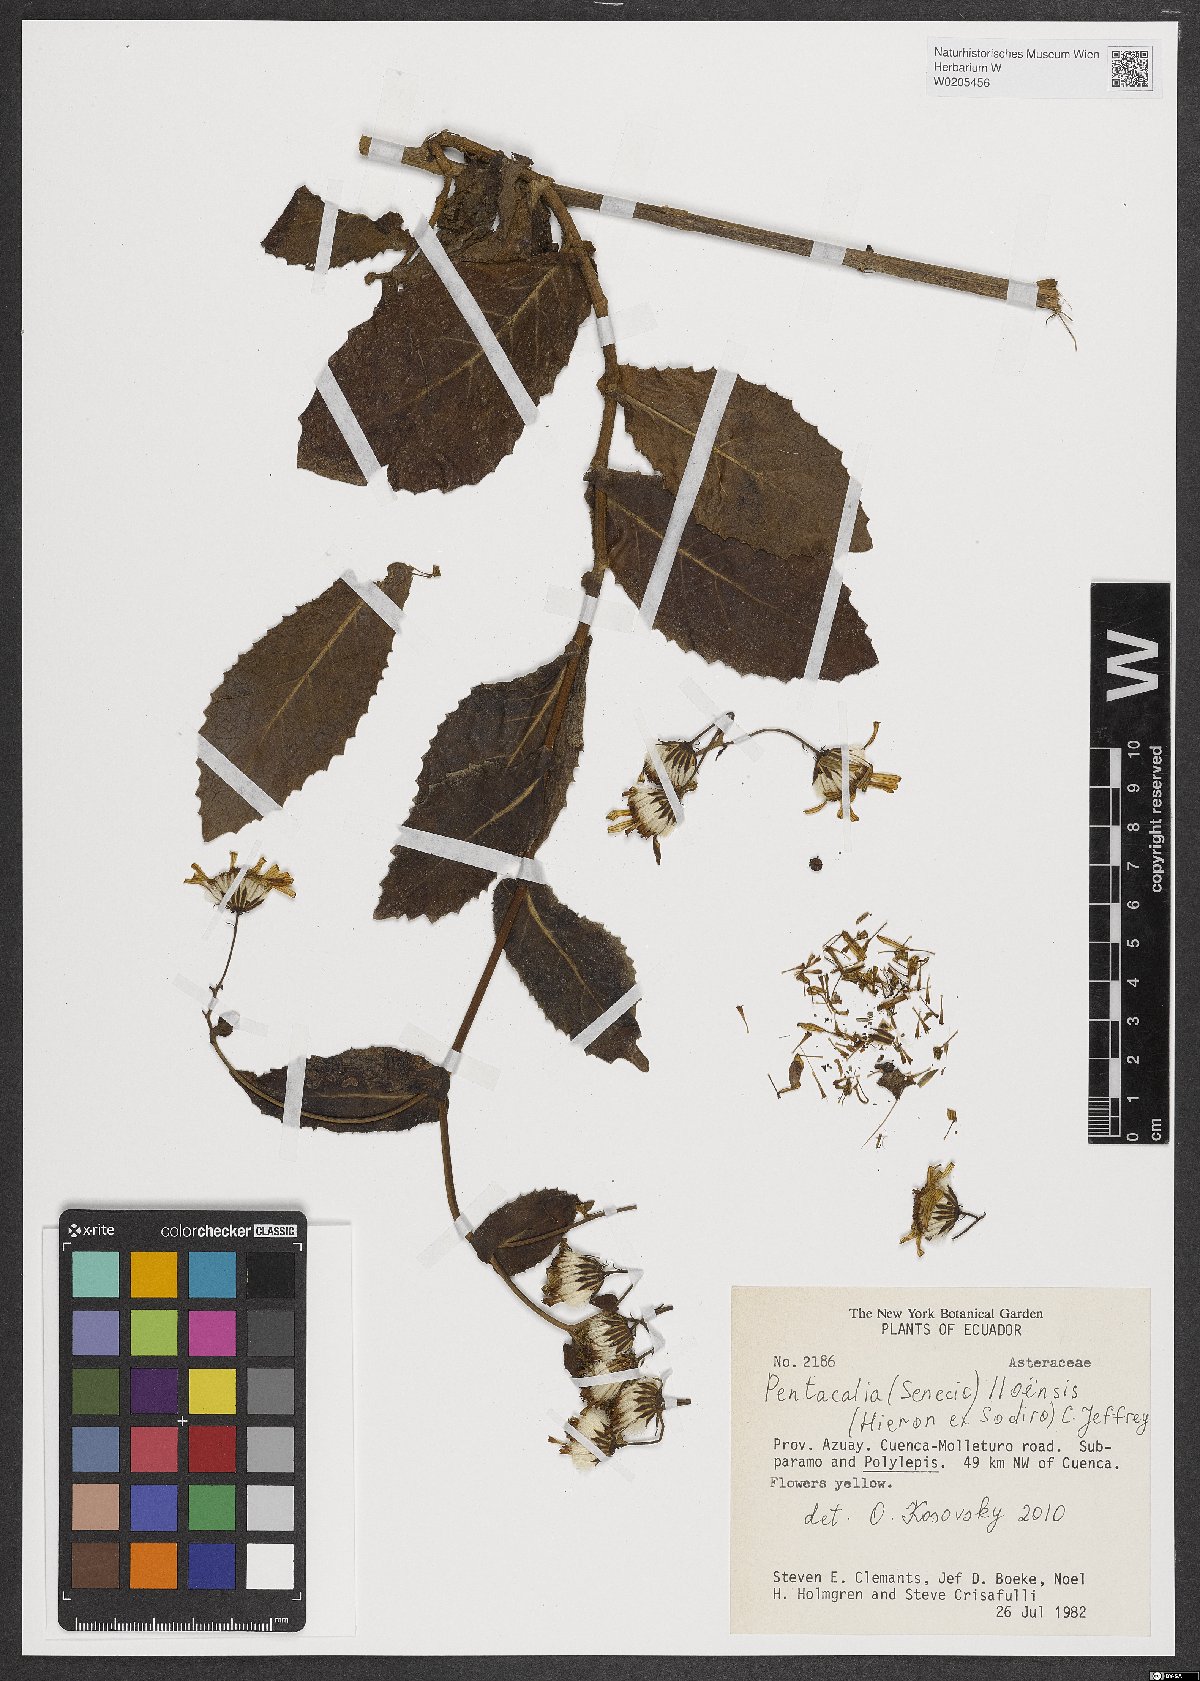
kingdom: Plantae
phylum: Tracheophyta
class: Magnoliopsida
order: Asterales
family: Asteraceae
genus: Senecio
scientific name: Senecio iloensis
